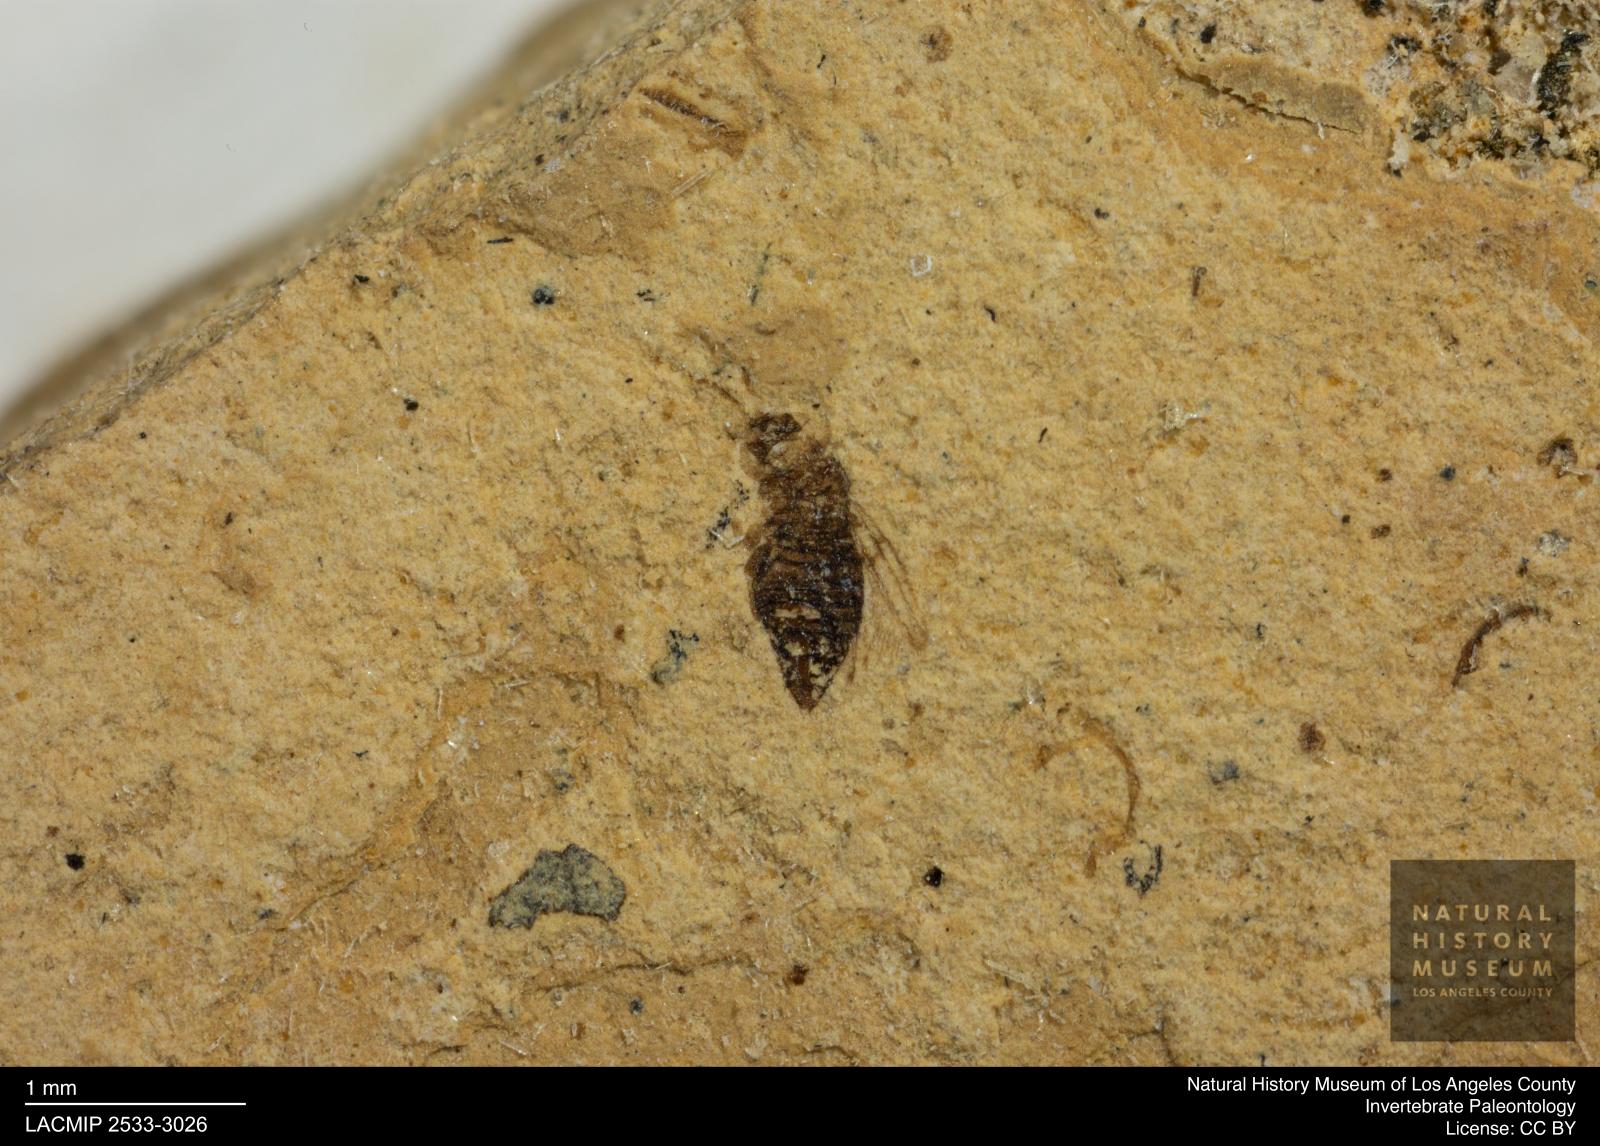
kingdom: Animalia
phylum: Arthropoda
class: Insecta
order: Thysanoptera
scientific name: Thysanoptera
